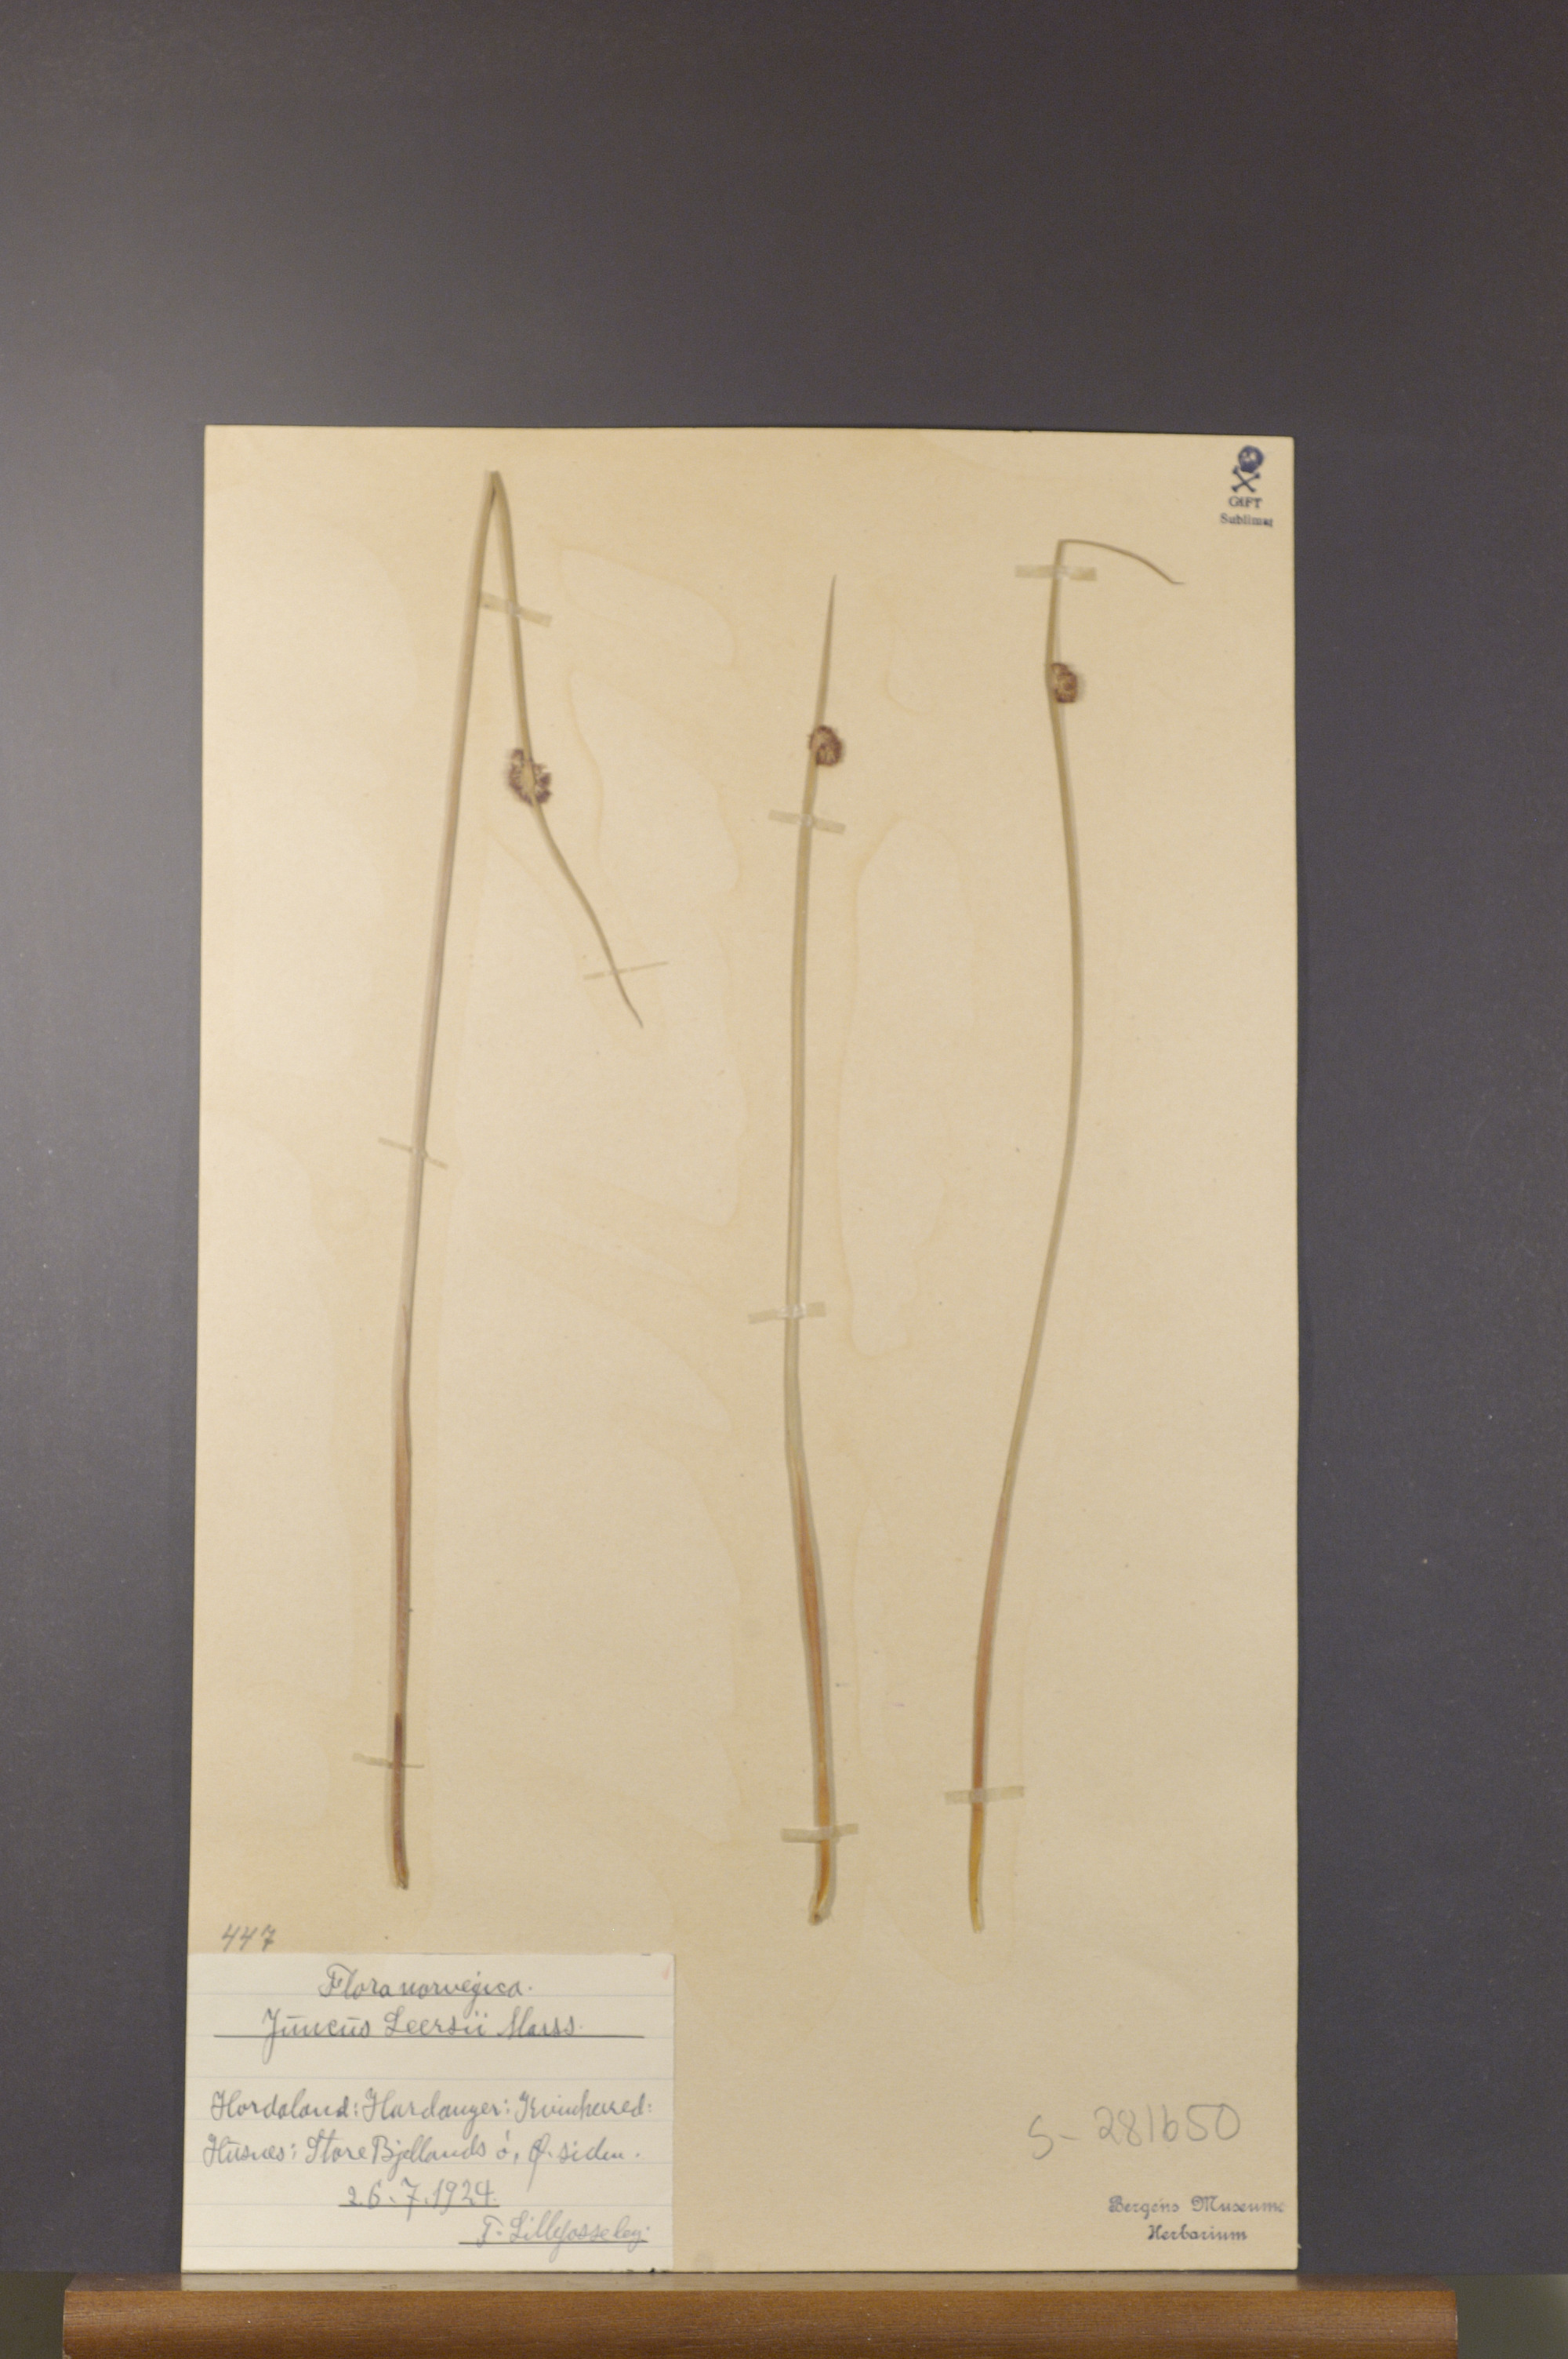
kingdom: Plantae
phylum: Tracheophyta
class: Liliopsida
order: Poales
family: Juncaceae
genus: Juncus
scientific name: Juncus conglomeratus
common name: Compact rush
